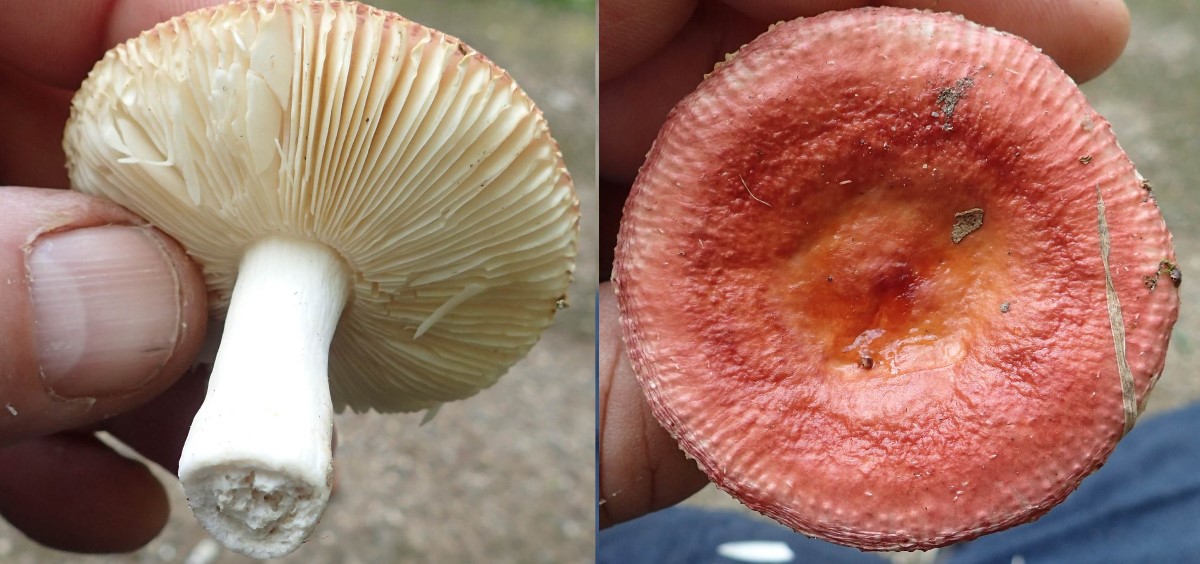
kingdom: Fungi
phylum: Basidiomycota
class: Agaricomycetes
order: Russulales
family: Russulaceae
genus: Russula
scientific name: Russula velenovskyi
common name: orangerød skørhat
